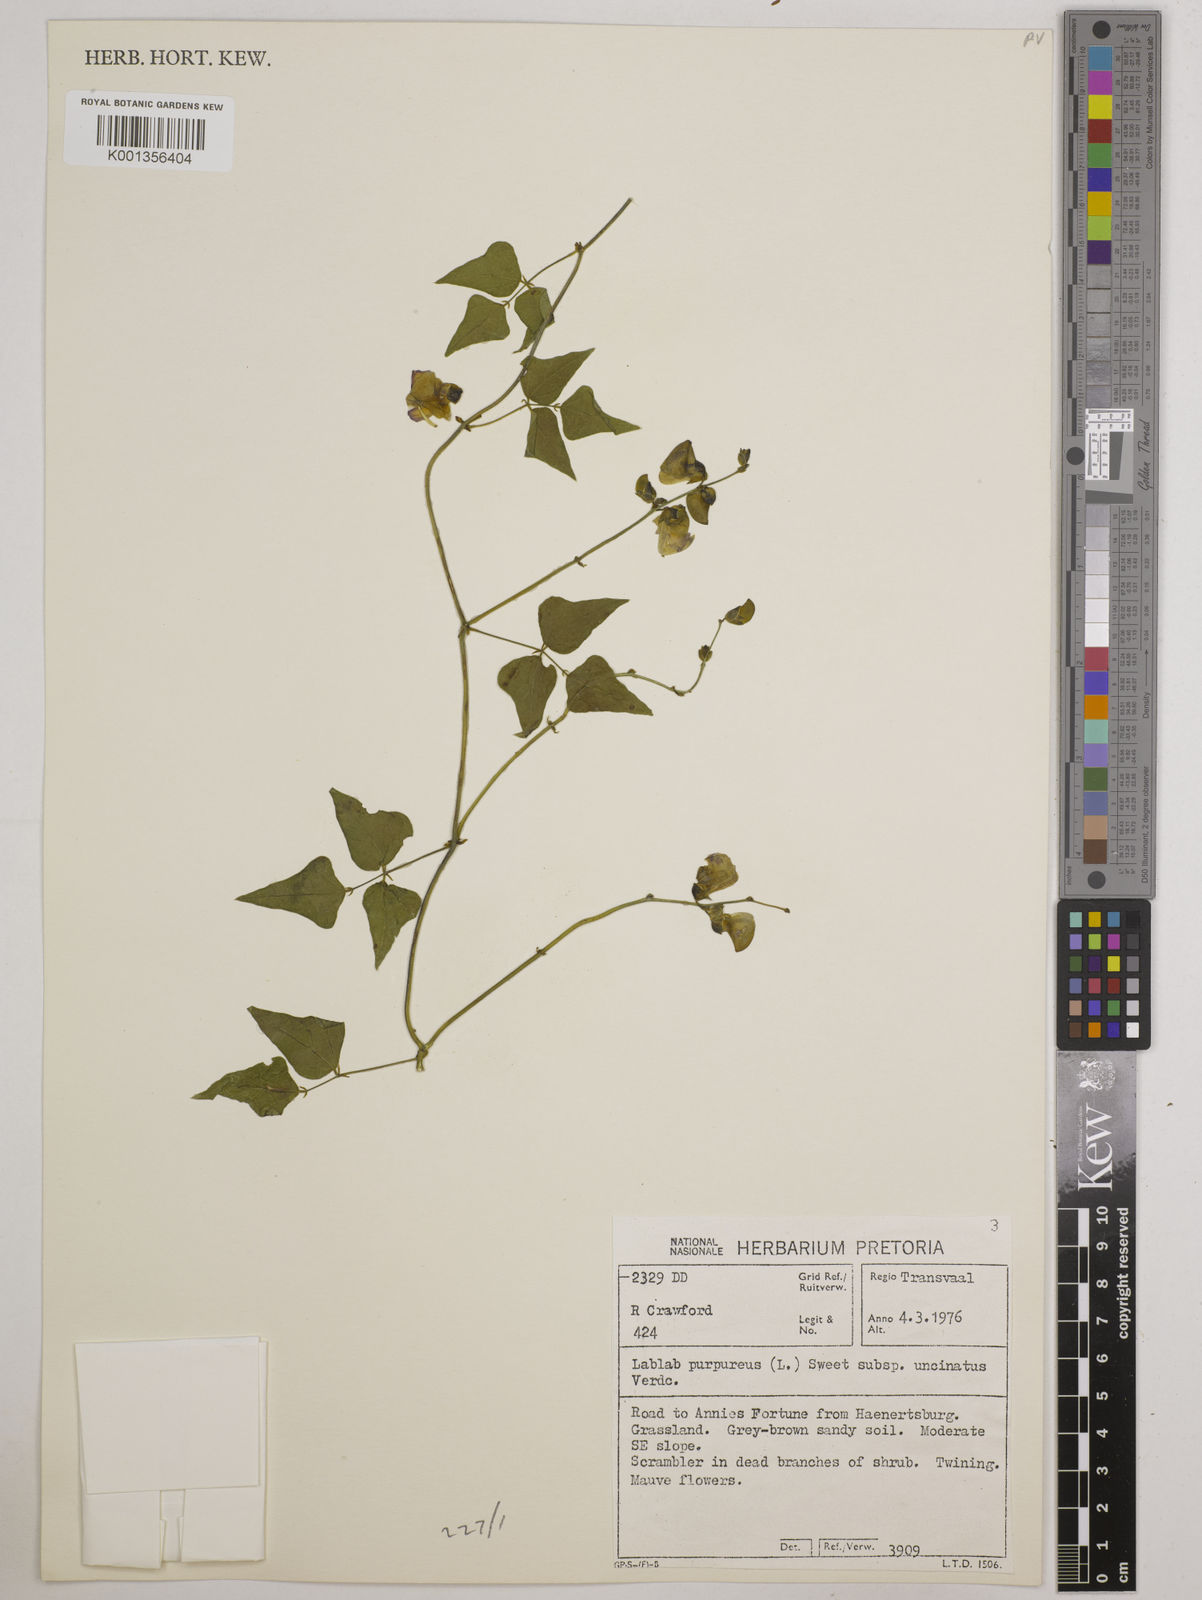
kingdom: Plantae
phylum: Tracheophyta
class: Magnoliopsida
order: Fabales
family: Fabaceae
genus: Lablab
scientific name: Lablab purpureus
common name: Lablab-bean
